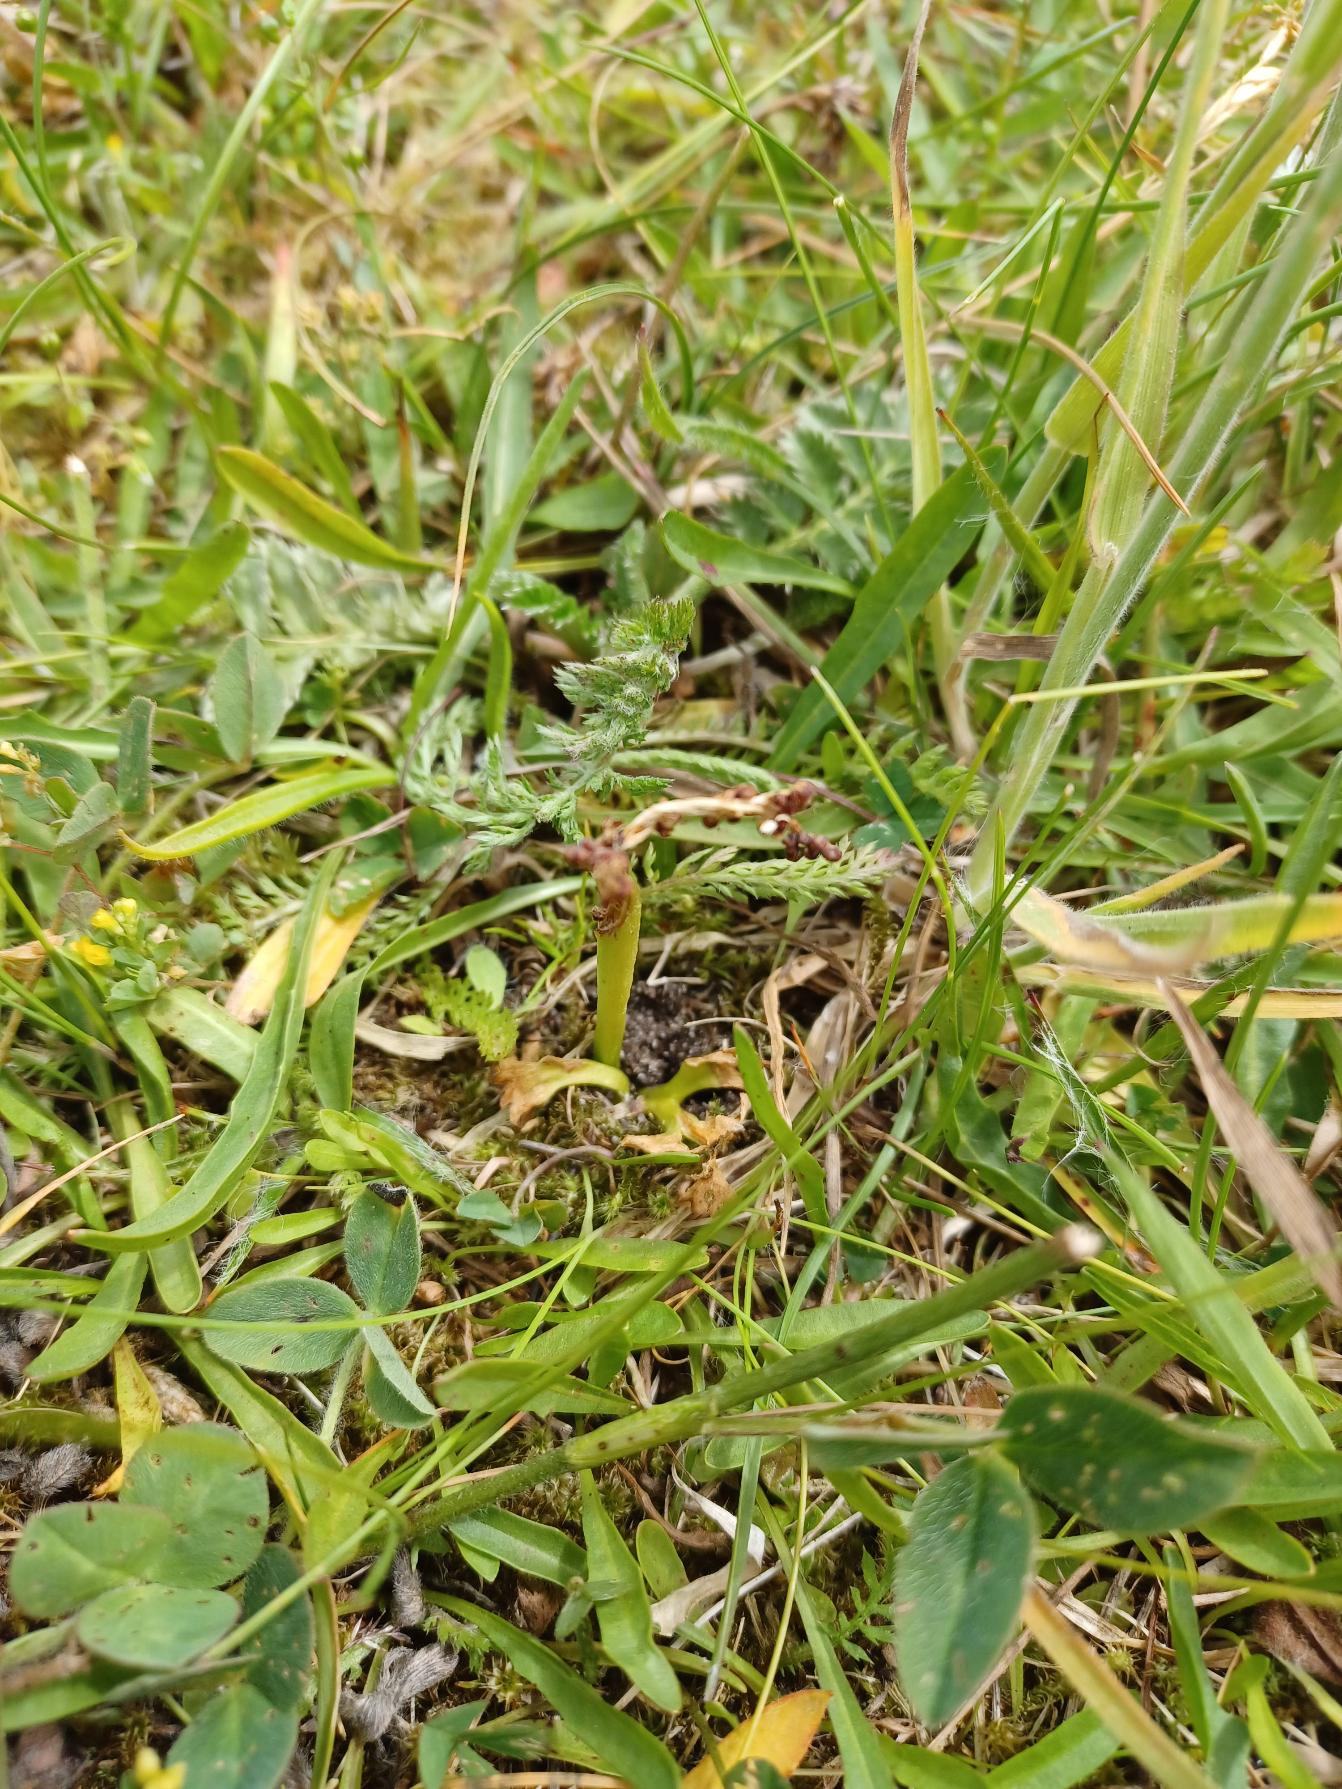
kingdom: Plantae
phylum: Tracheophyta
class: Polypodiopsida
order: Ophioglossales
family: Ophioglossaceae
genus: Sceptridium
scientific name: Sceptridium multifidum
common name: Stilk-månerude
